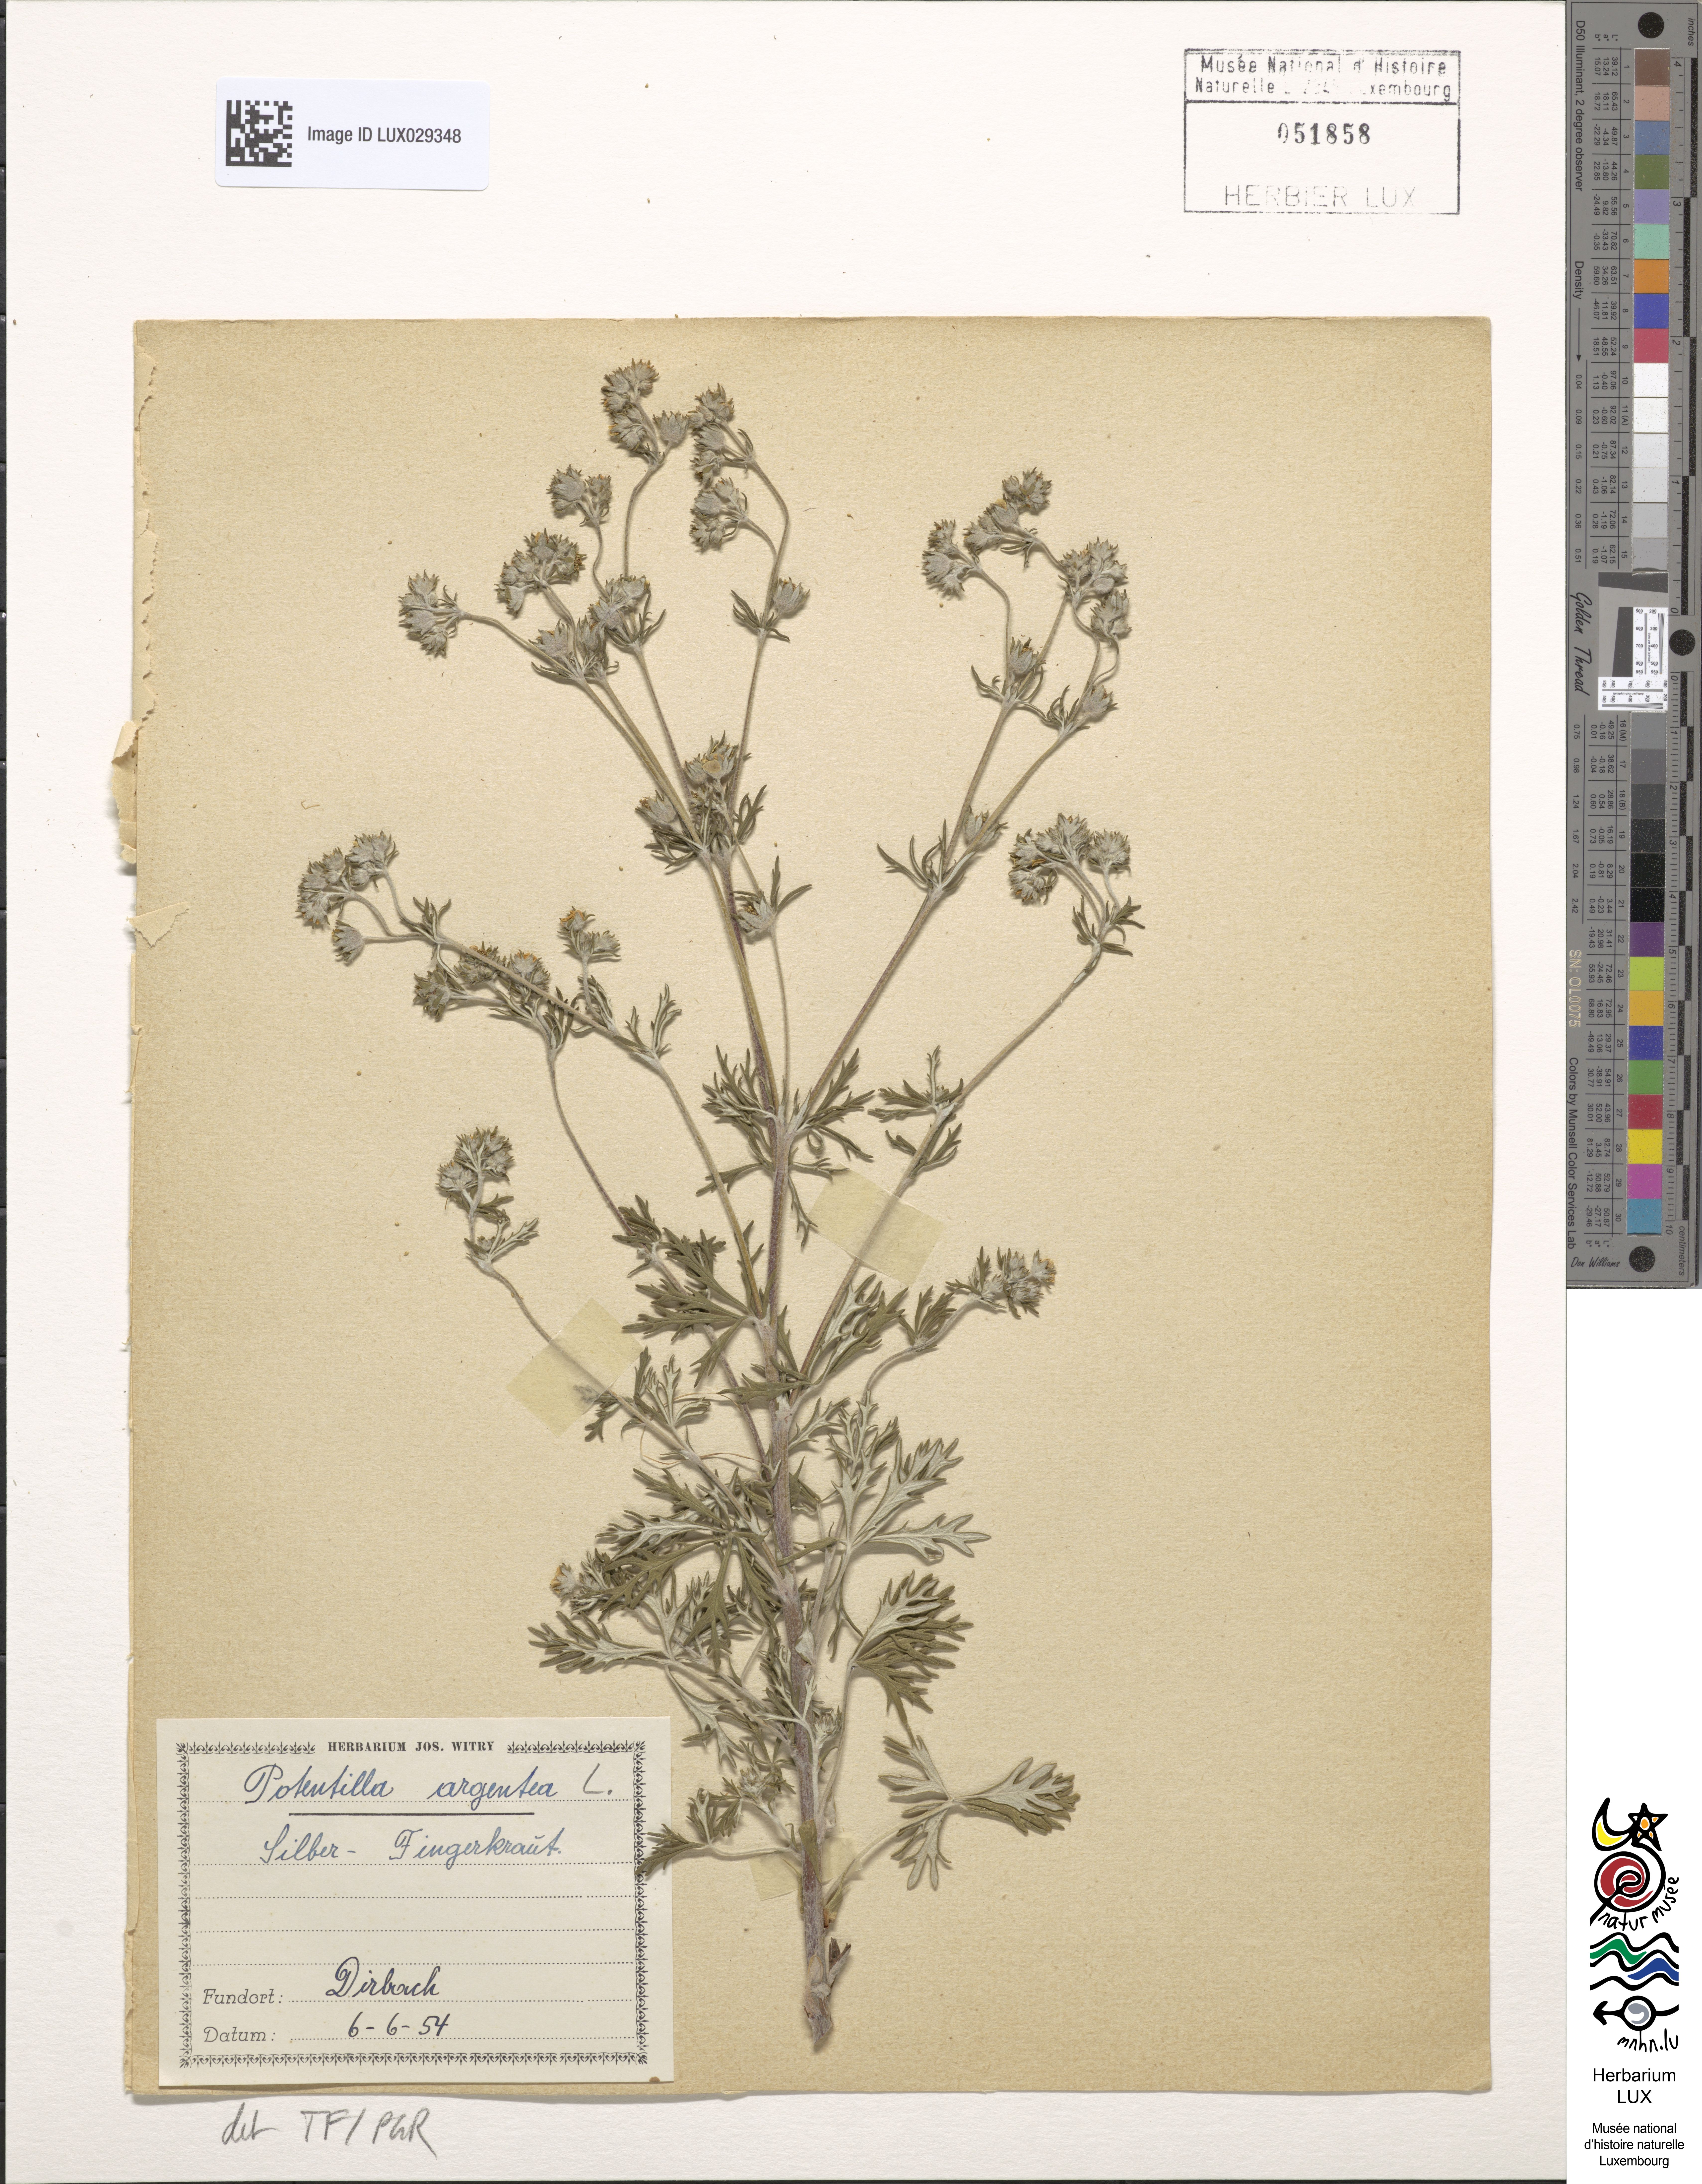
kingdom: Plantae
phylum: Tracheophyta
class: Magnoliopsida
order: Rosales
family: Rosaceae
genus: Potentilla
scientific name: Potentilla argentea
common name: Hoary cinquefoil
